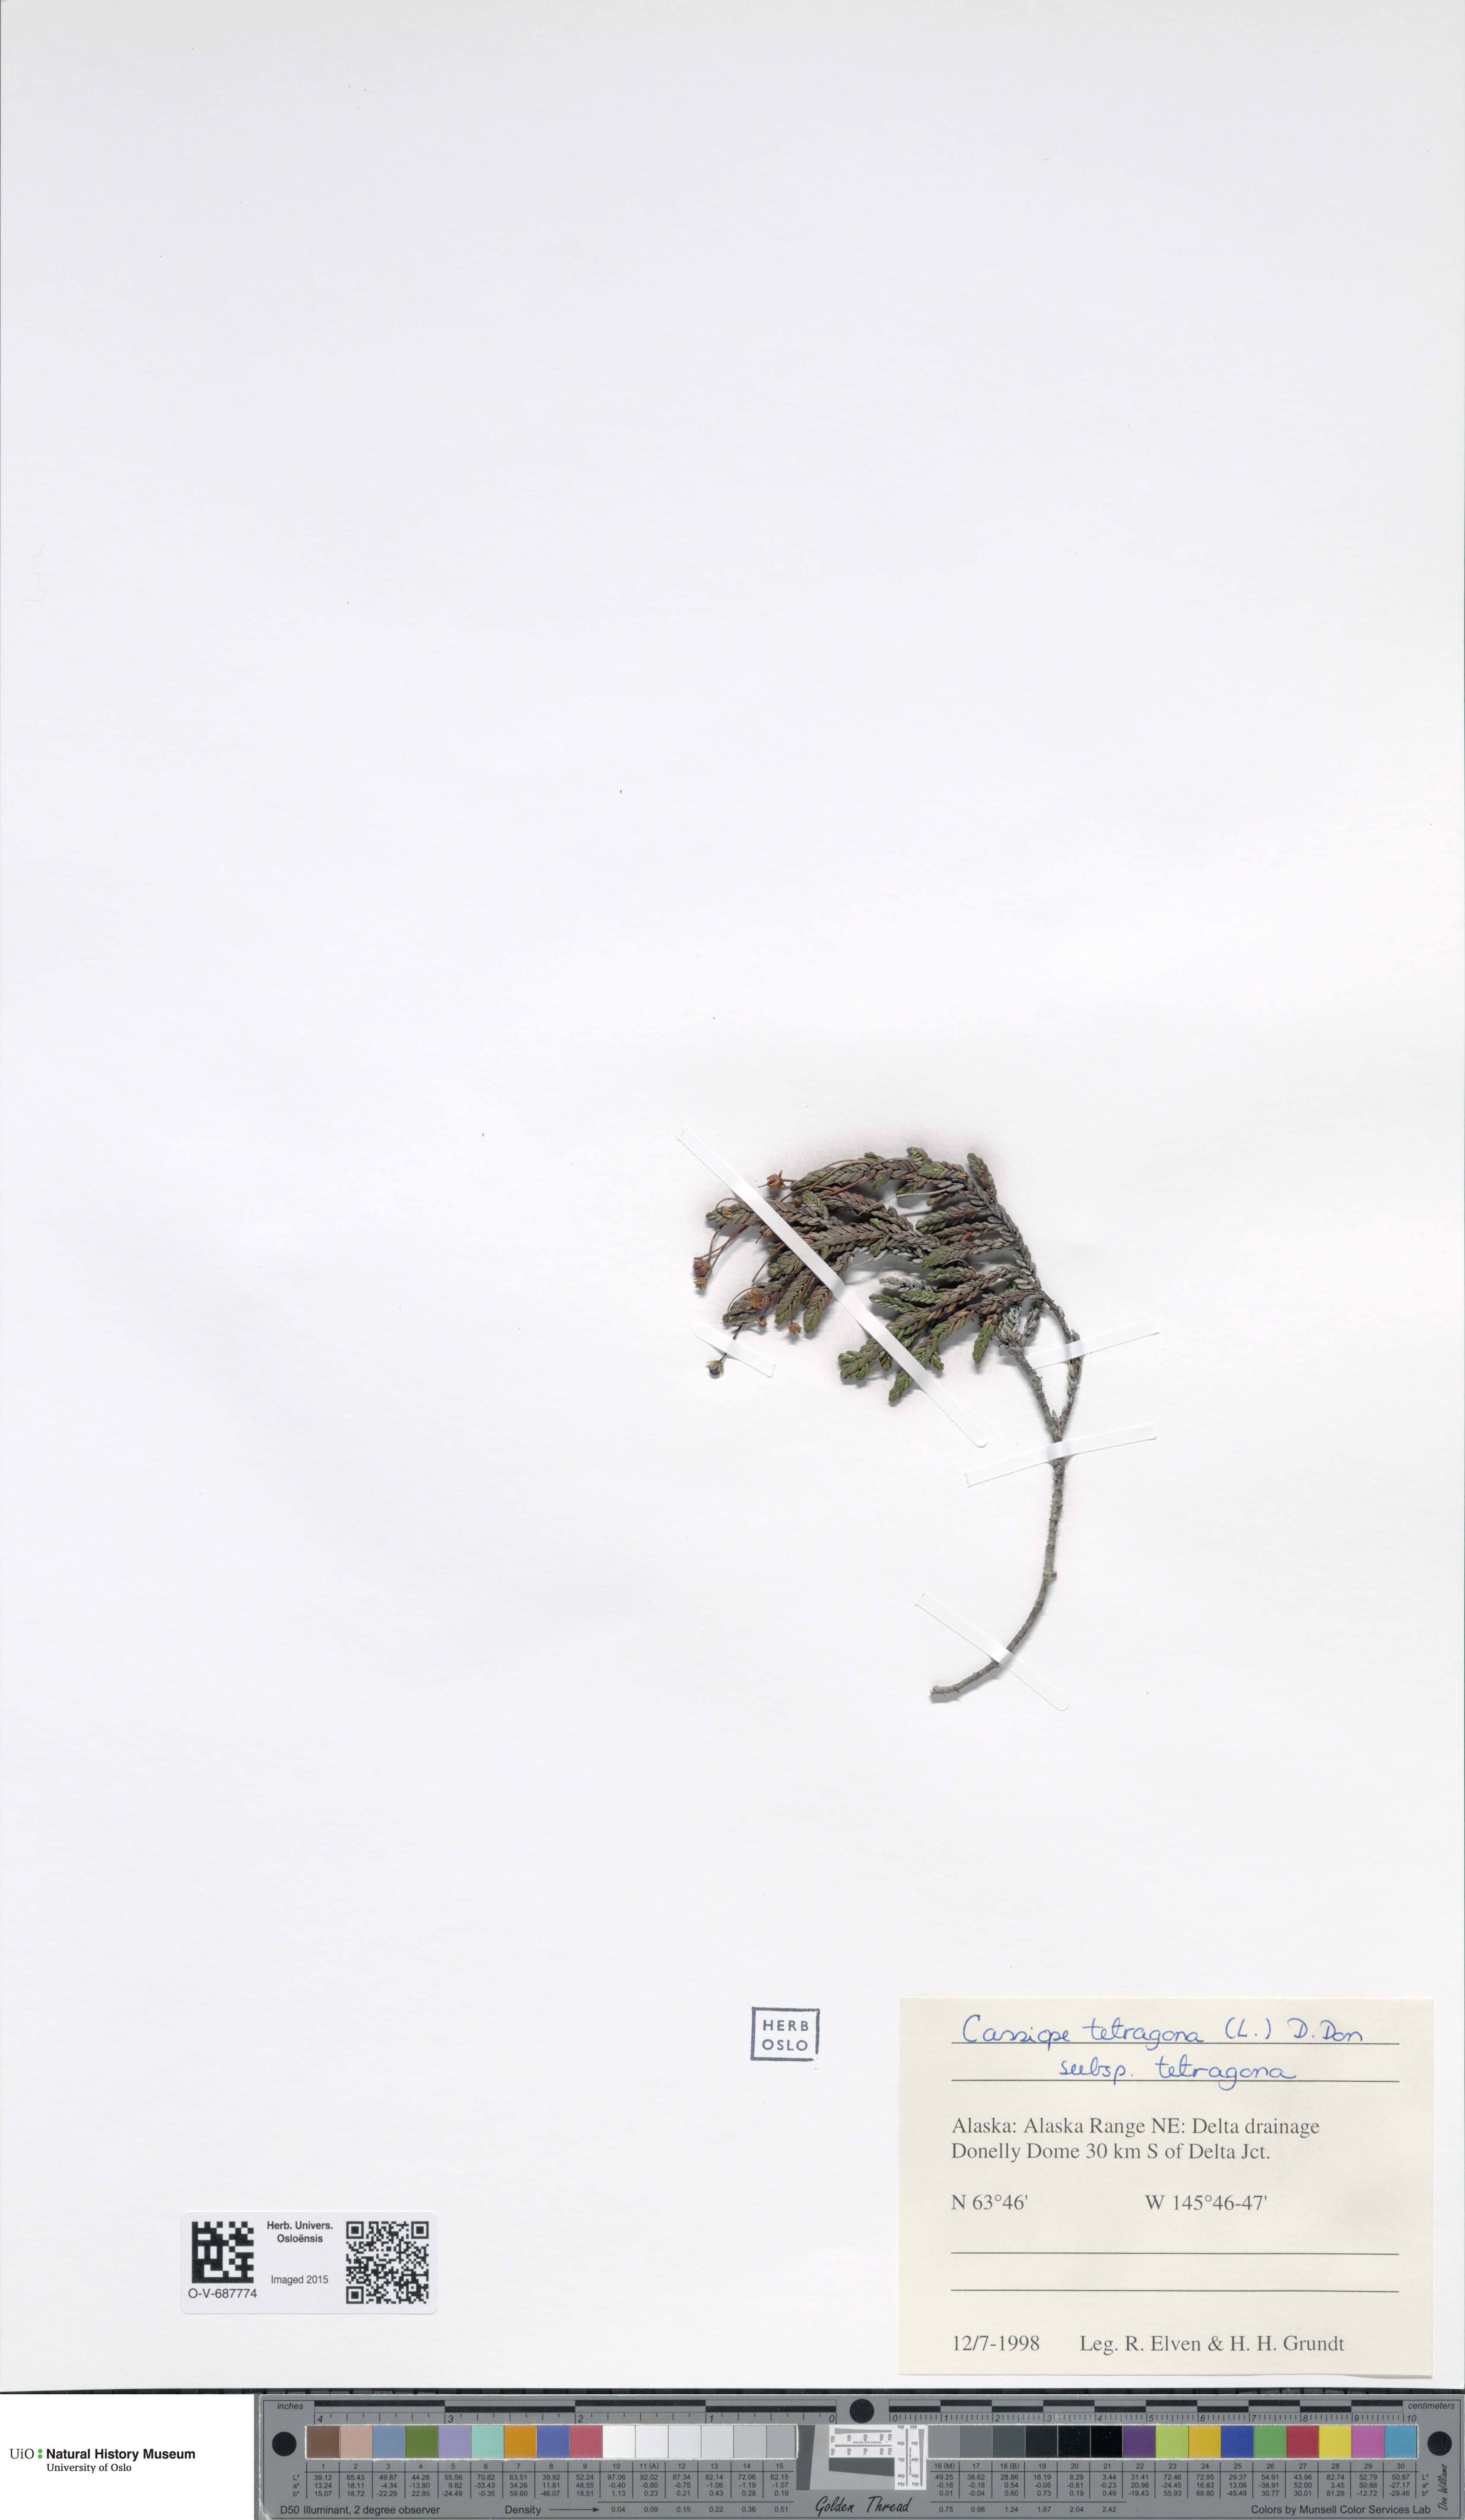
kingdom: Plantae
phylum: Tracheophyta
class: Magnoliopsida
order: Ericales
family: Ericaceae
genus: Cassiope
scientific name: Cassiope tetragona
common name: Arctic bell heather
